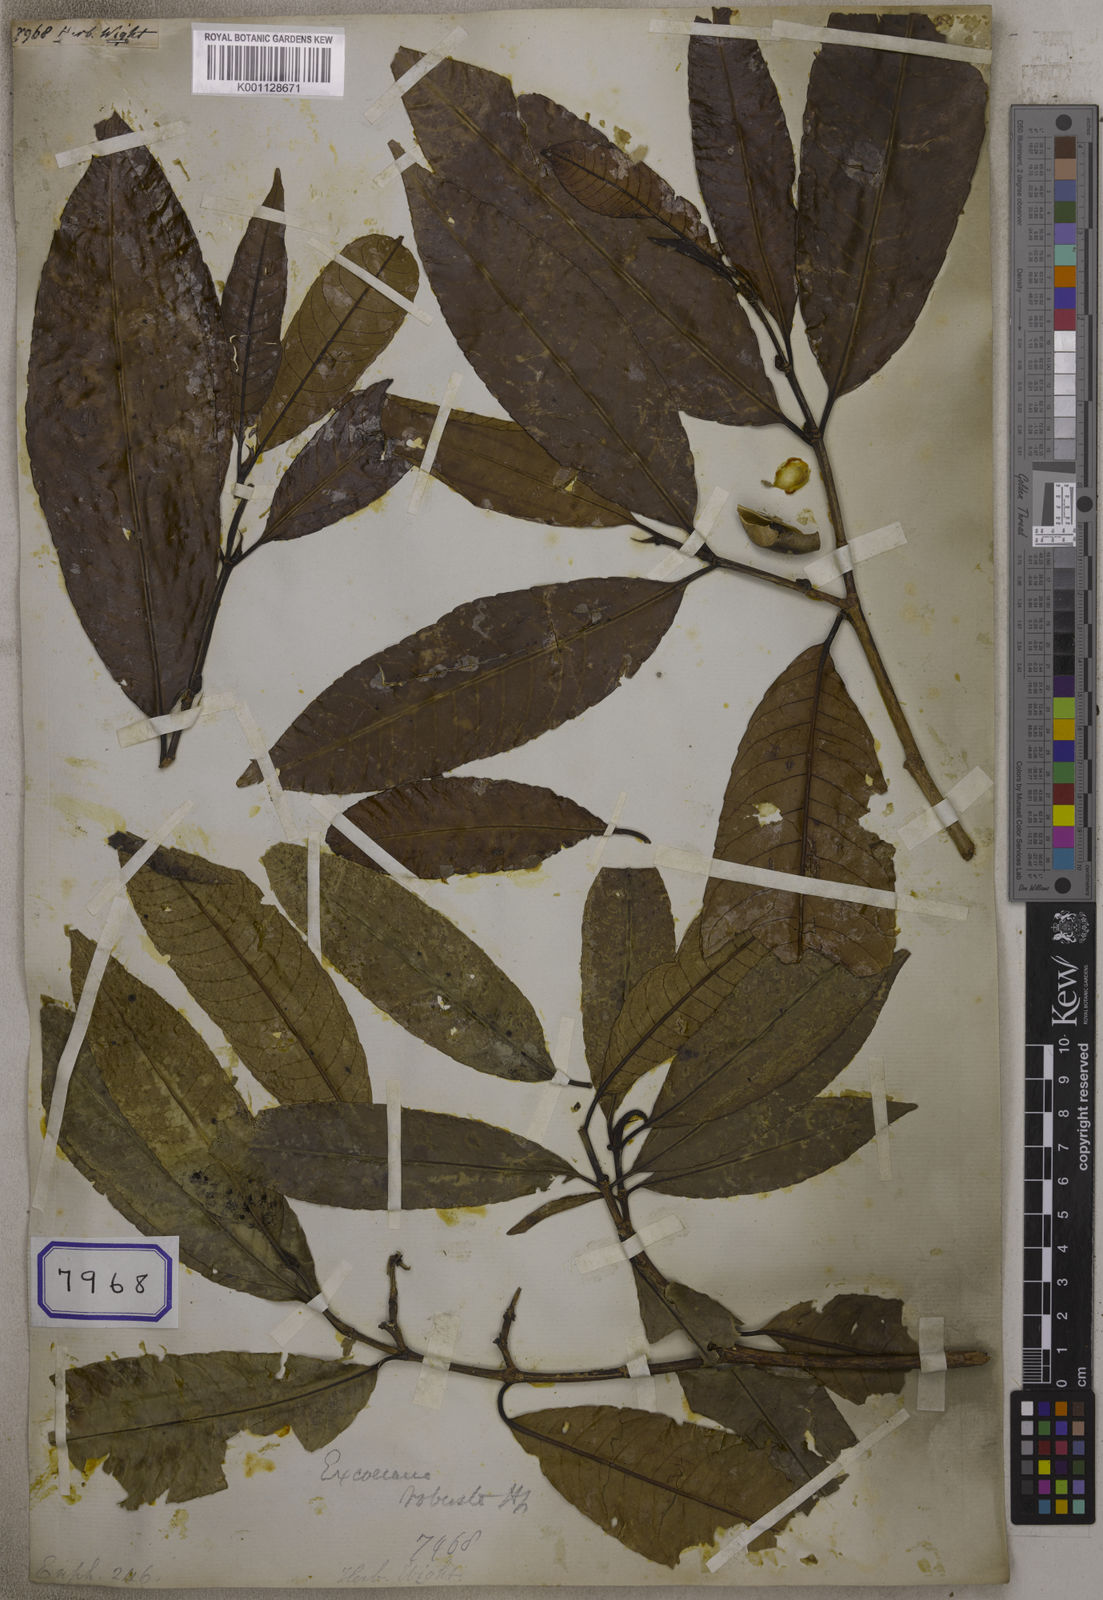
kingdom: Plantae
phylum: Tracheophyta
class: Magnoliopsida
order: Malpighiales
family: Euphorbiaceae
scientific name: Euphorbiaceae
